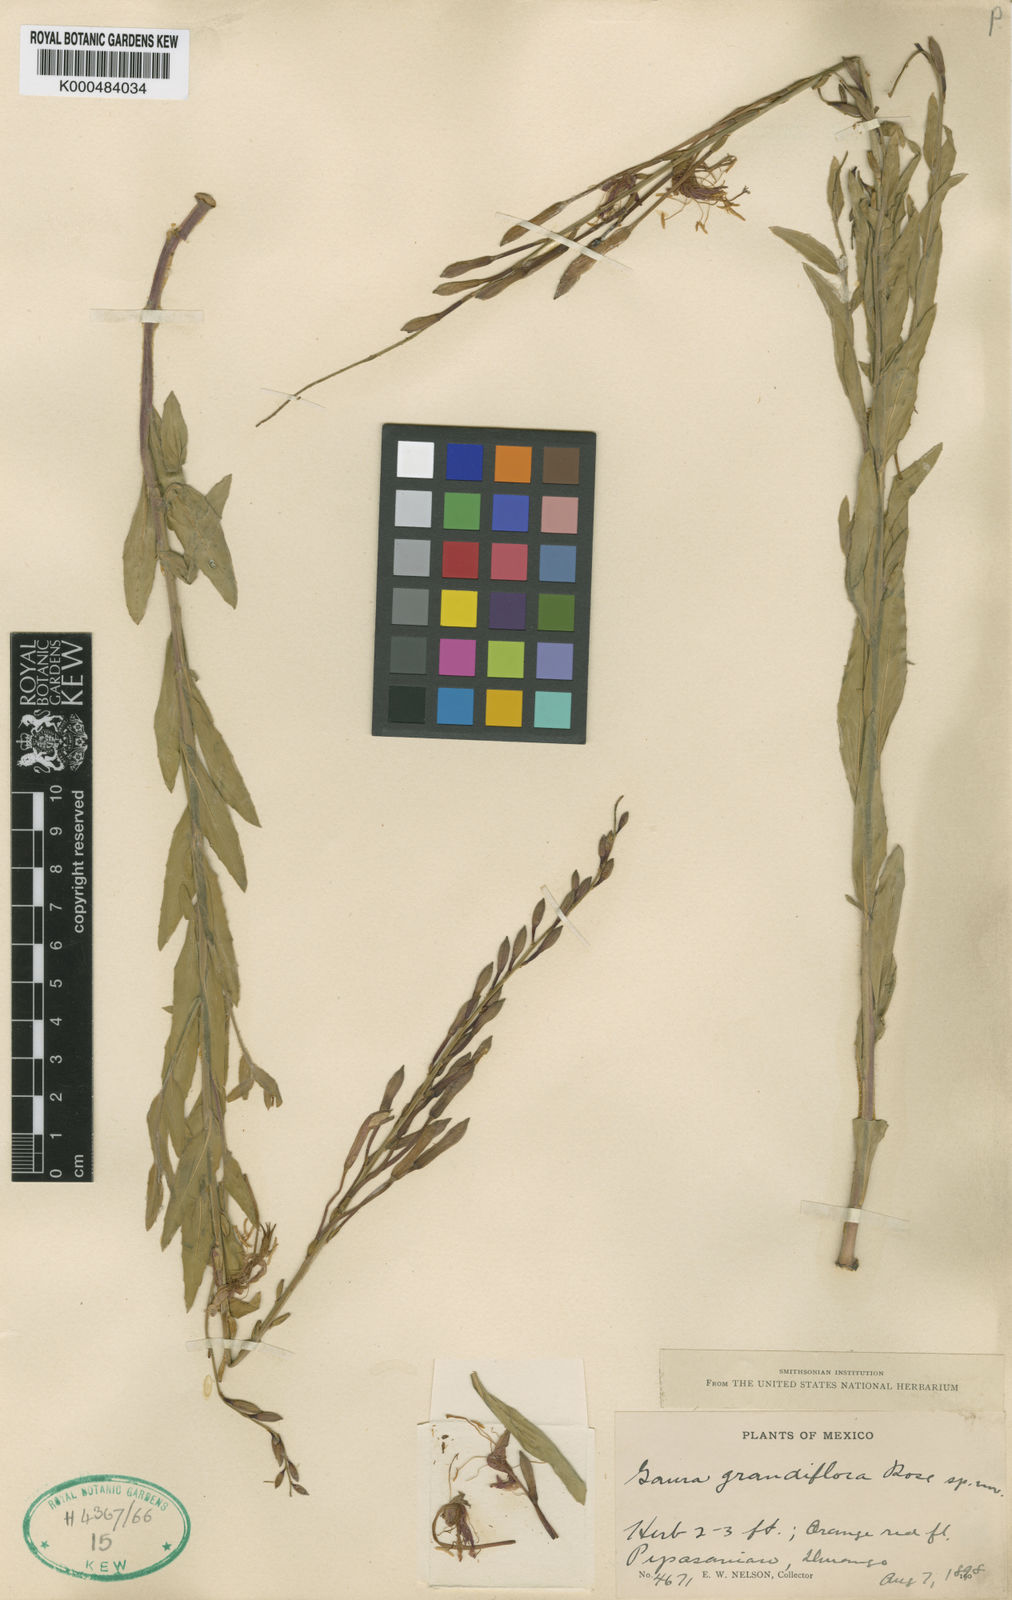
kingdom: Plantae
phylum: Tracheophyta
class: Magnoliopsida
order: Myrtales
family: Onagraceae
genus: Oenothera
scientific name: Oenothera anomala
